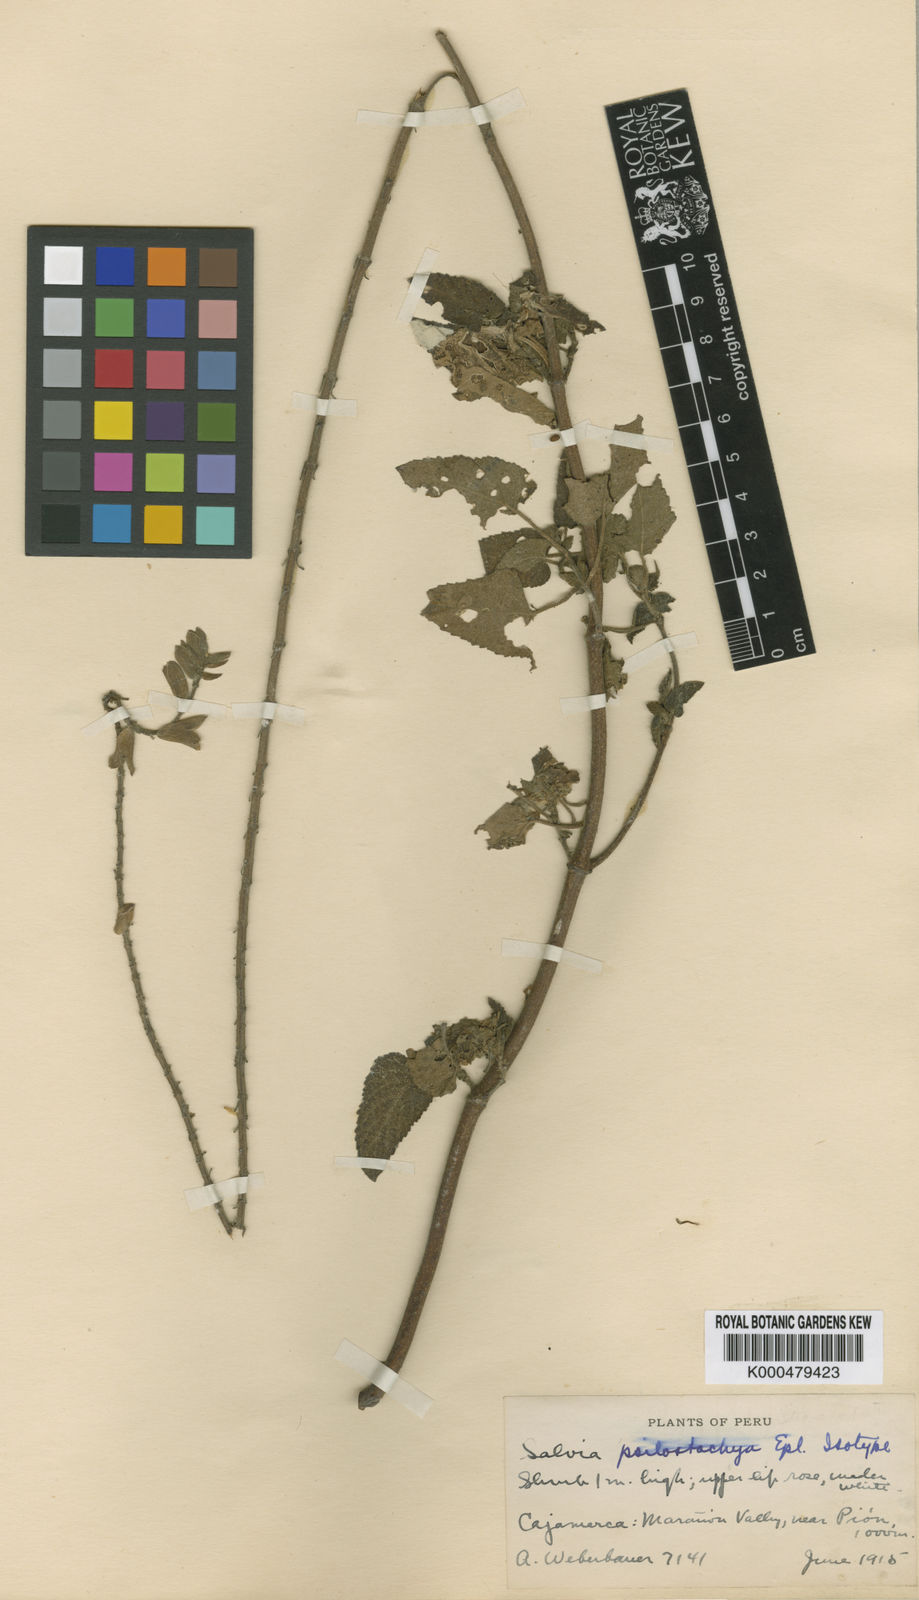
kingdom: Plantae
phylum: Tracheophyta
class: Magnoliopsida
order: Lamiales
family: Lamiaceae
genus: Salvia
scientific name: Salvia psilostachya
